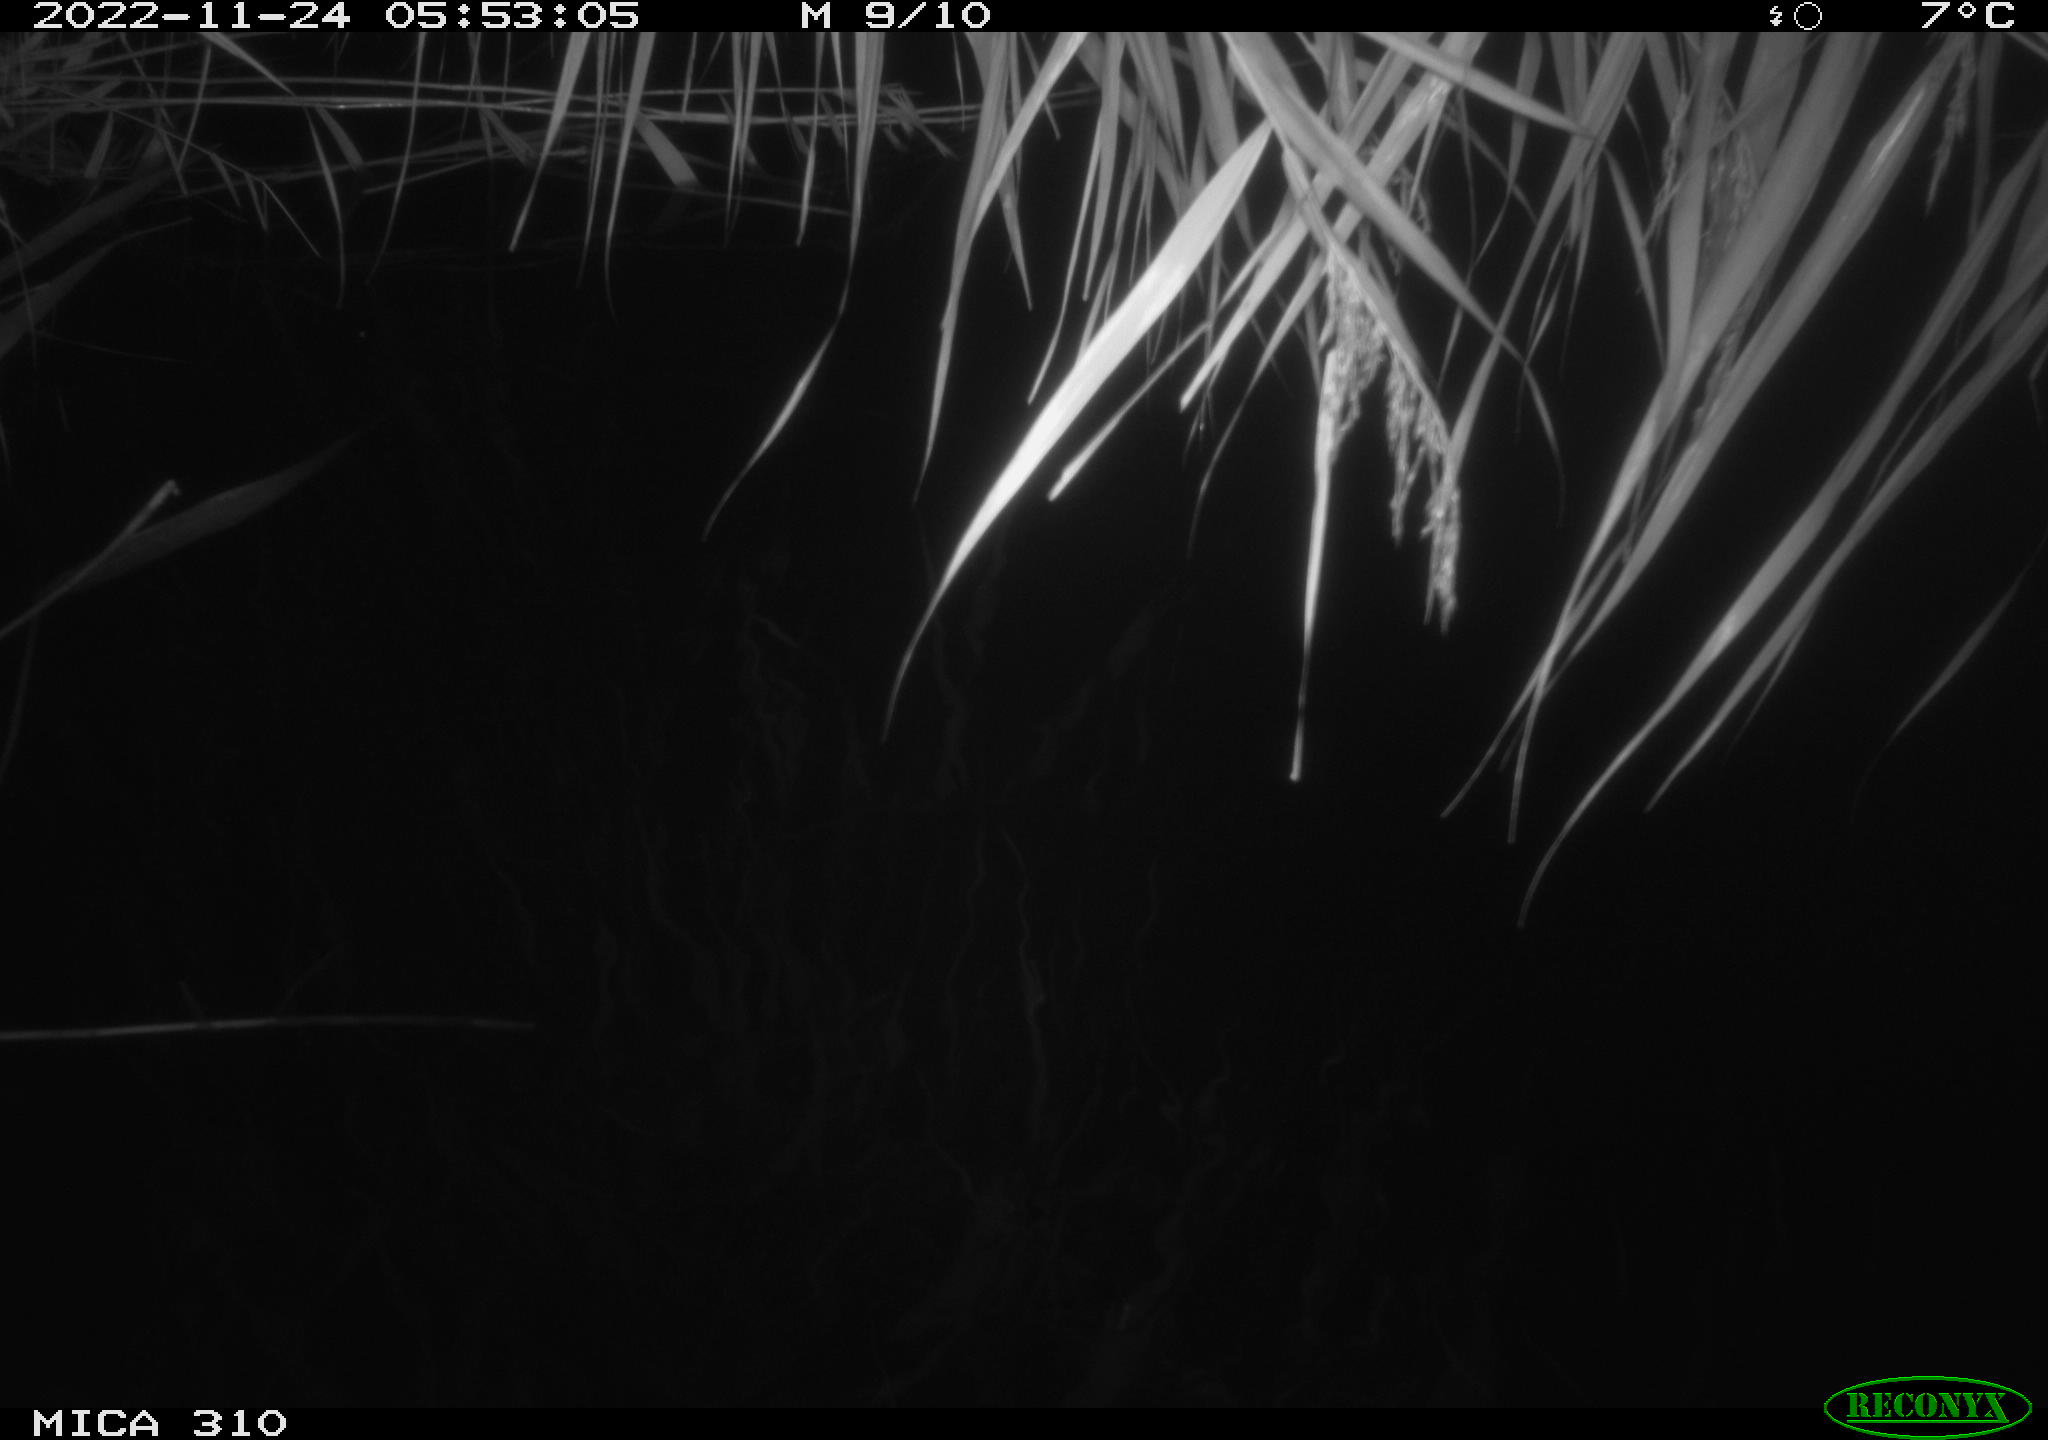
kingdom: Animalia
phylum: Chordata
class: Mammalia
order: Rodentia
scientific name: Rodentia
